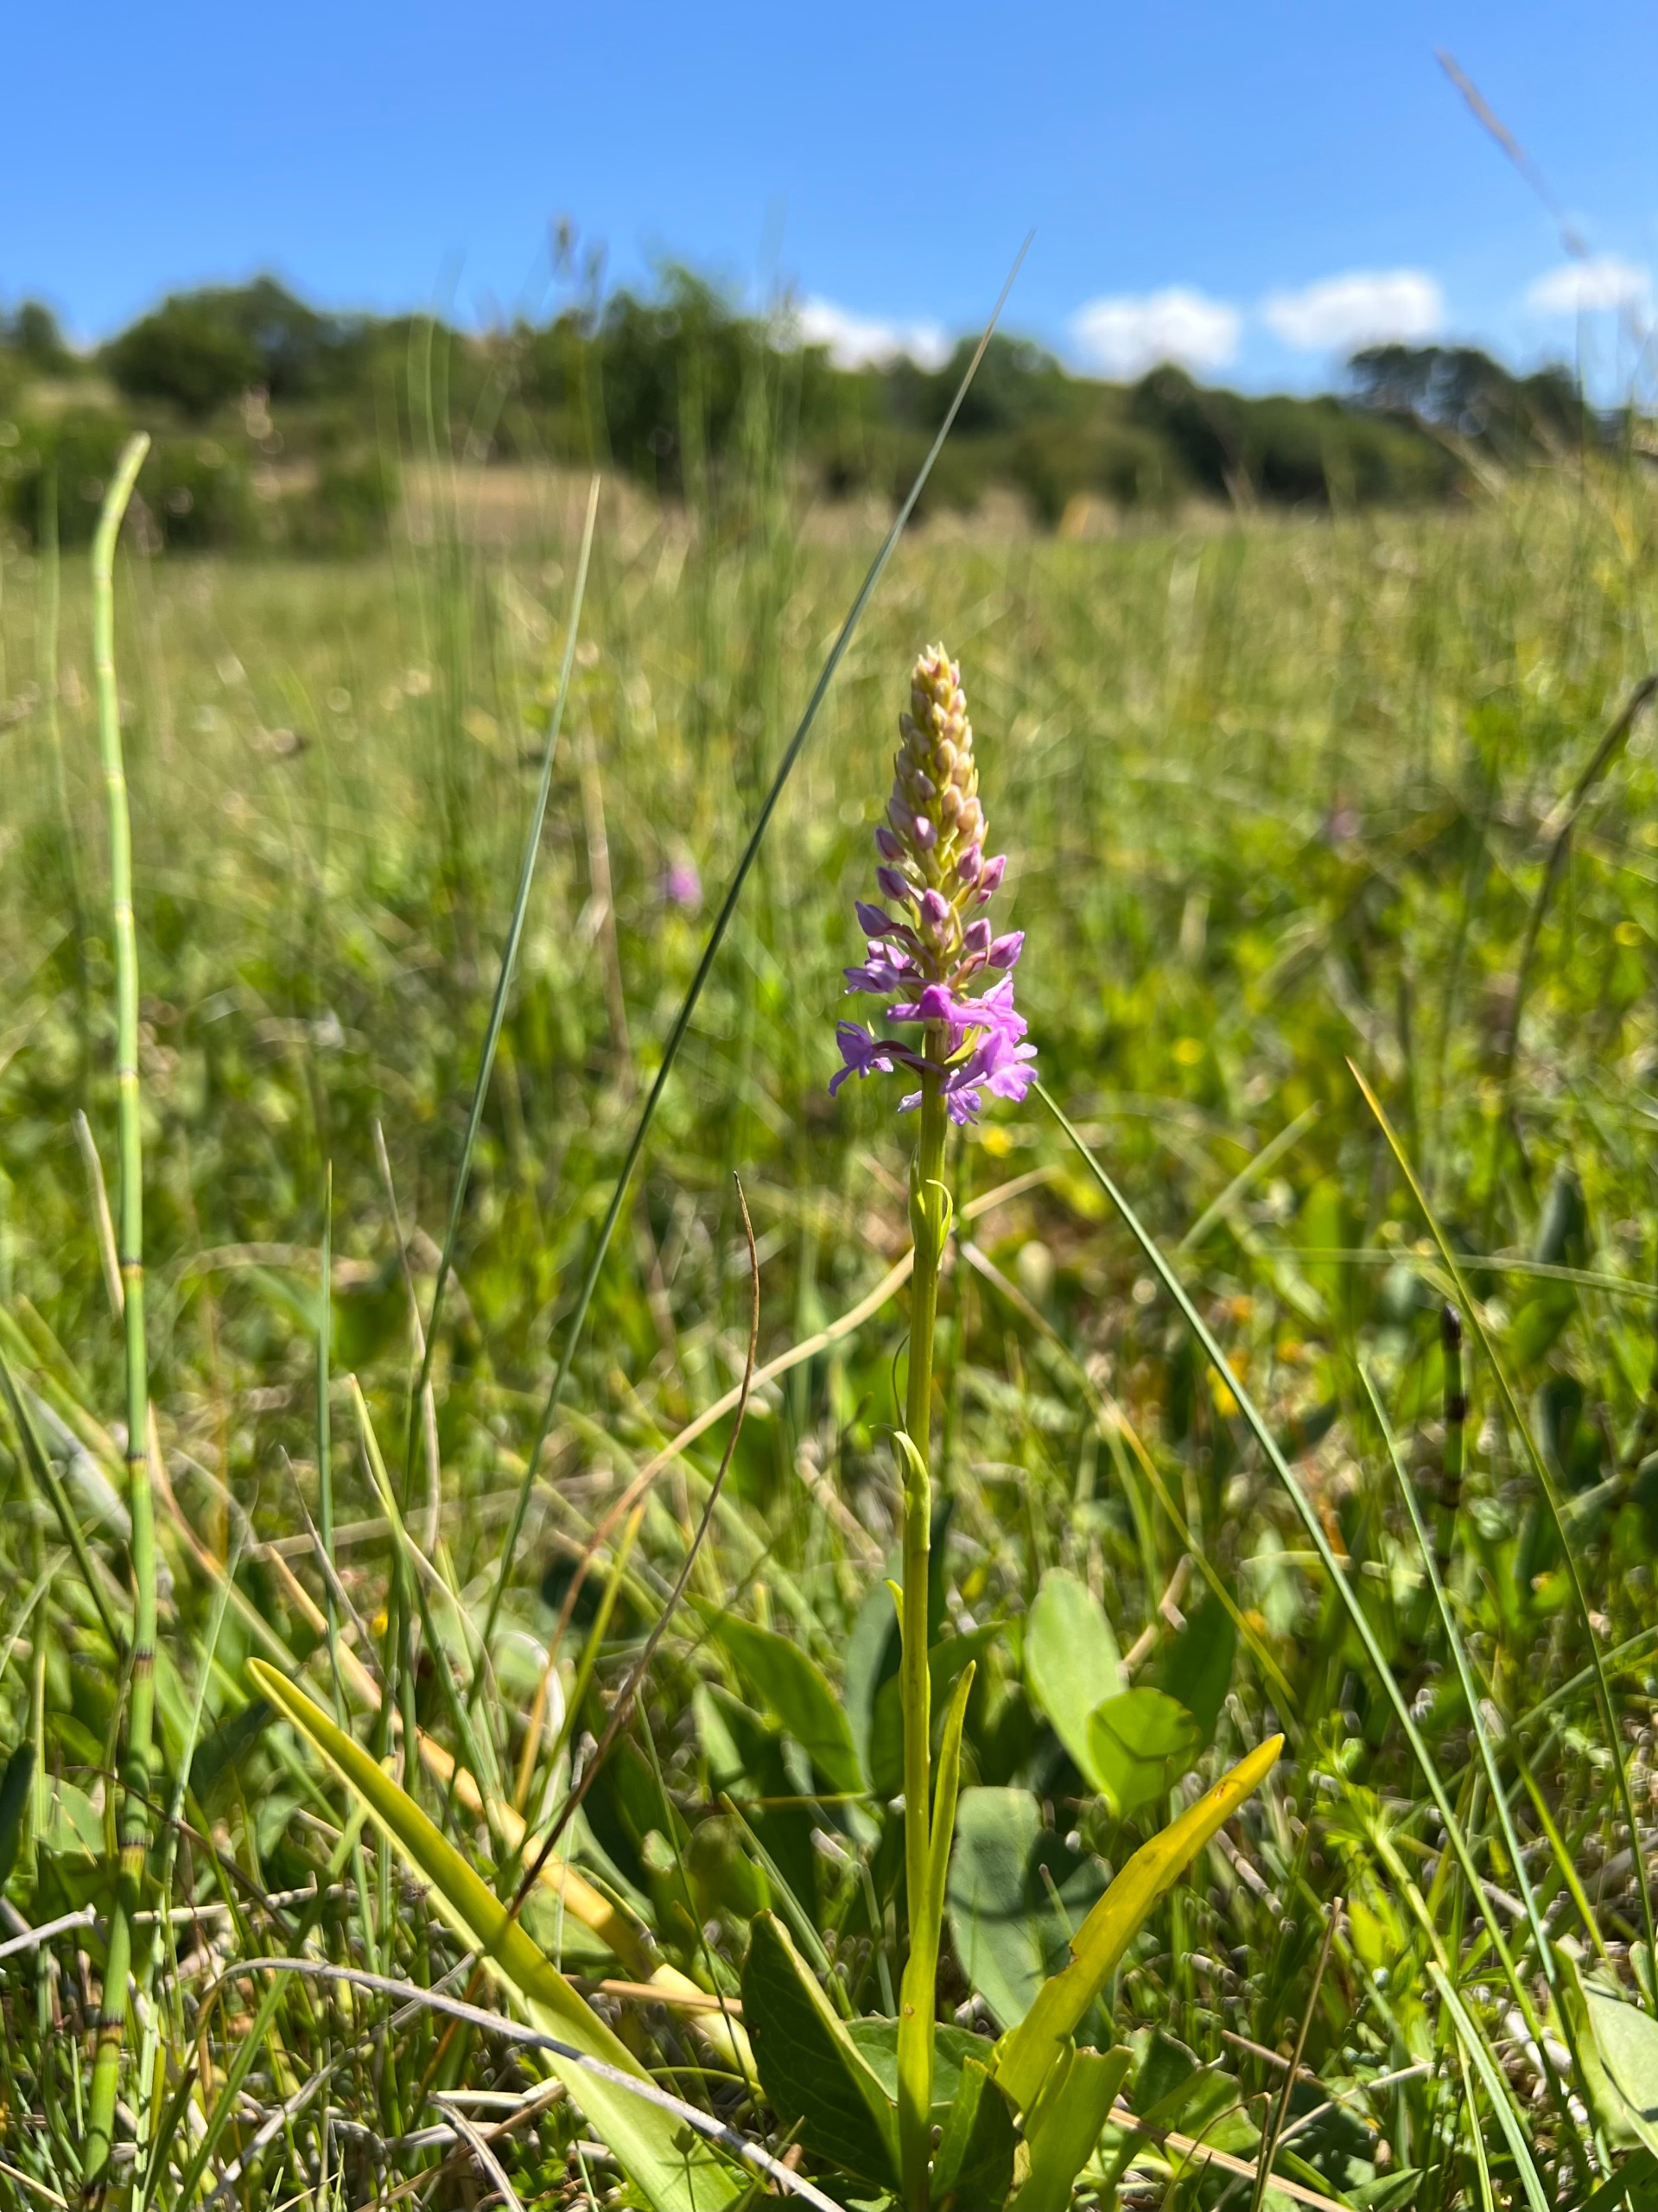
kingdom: Plantae
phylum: Tracheophyta
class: Liliopsida
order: Asparagales
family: Orchidaceae
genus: Gymnadenia
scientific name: Gymnadenia densiflora
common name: Tætblomstret trådspore
